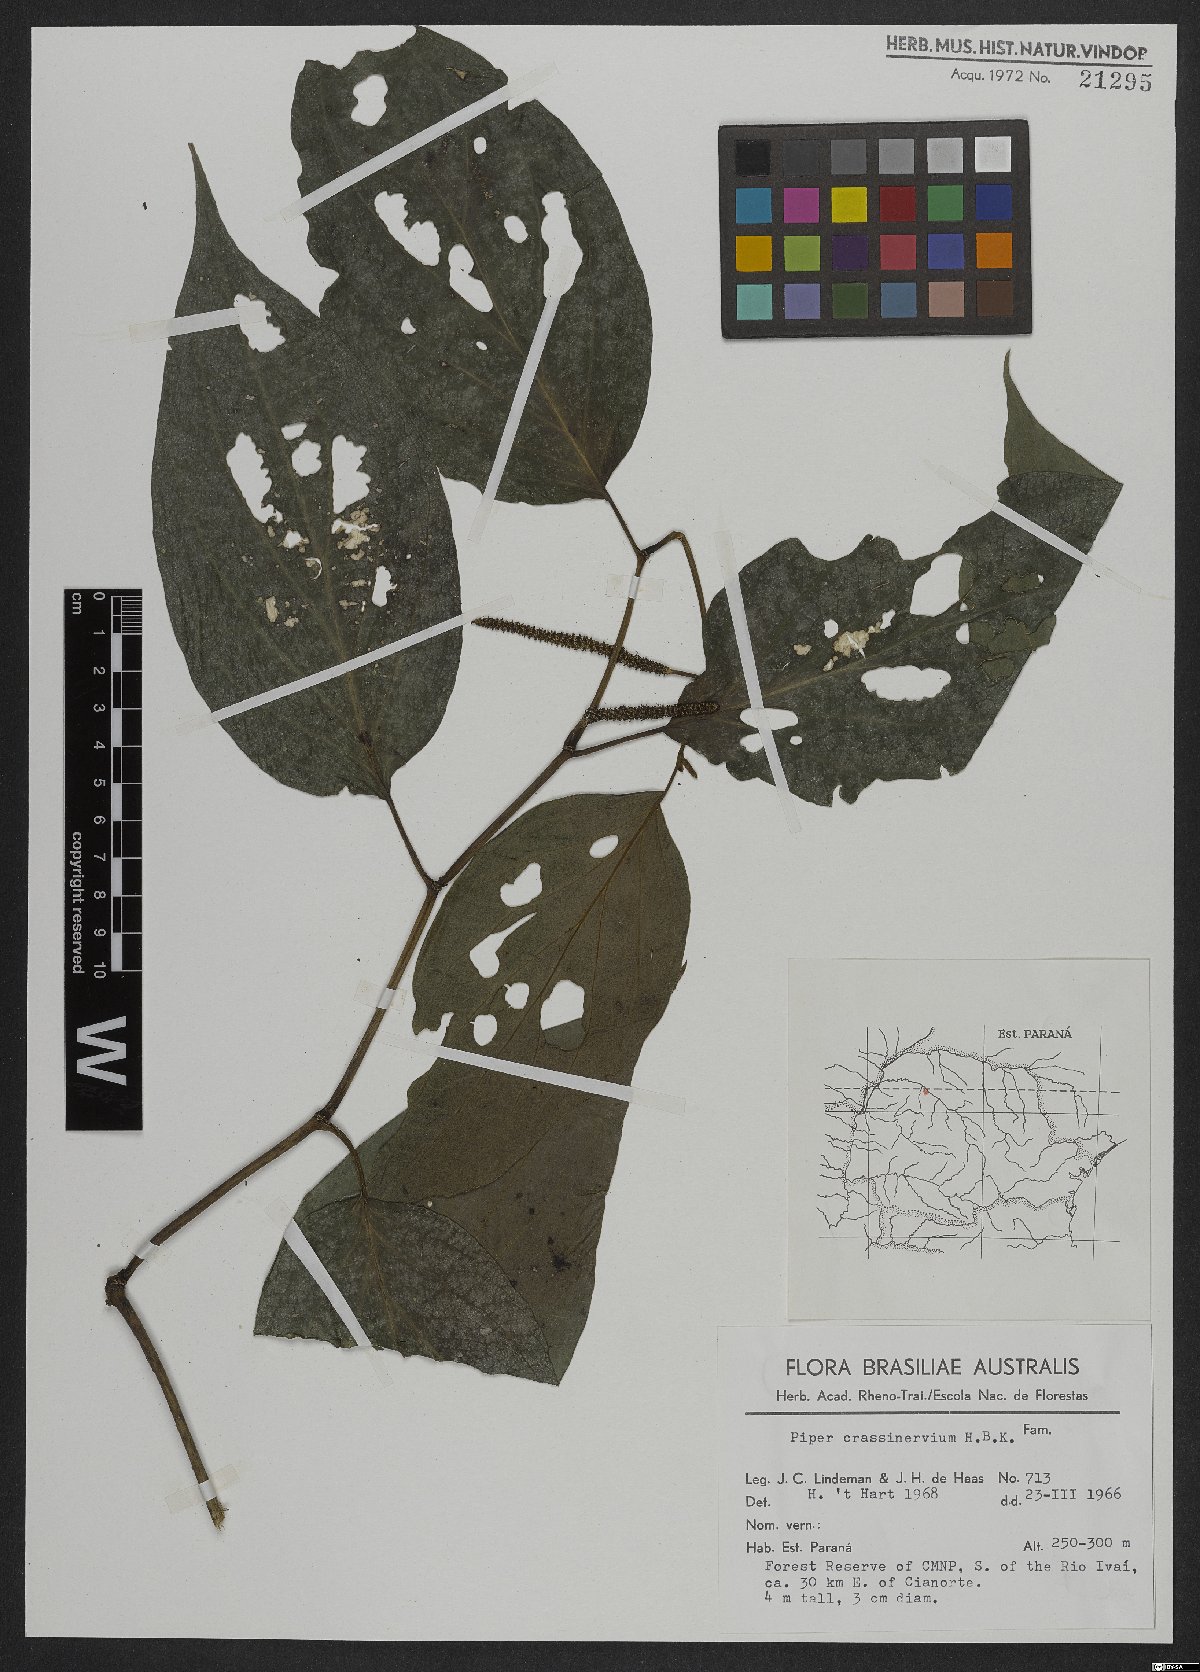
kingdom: Plantae
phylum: Tracheophyta
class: Magnoliopsida
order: Piperales
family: Piperaceae
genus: Piper
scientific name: Piper crassinervium
